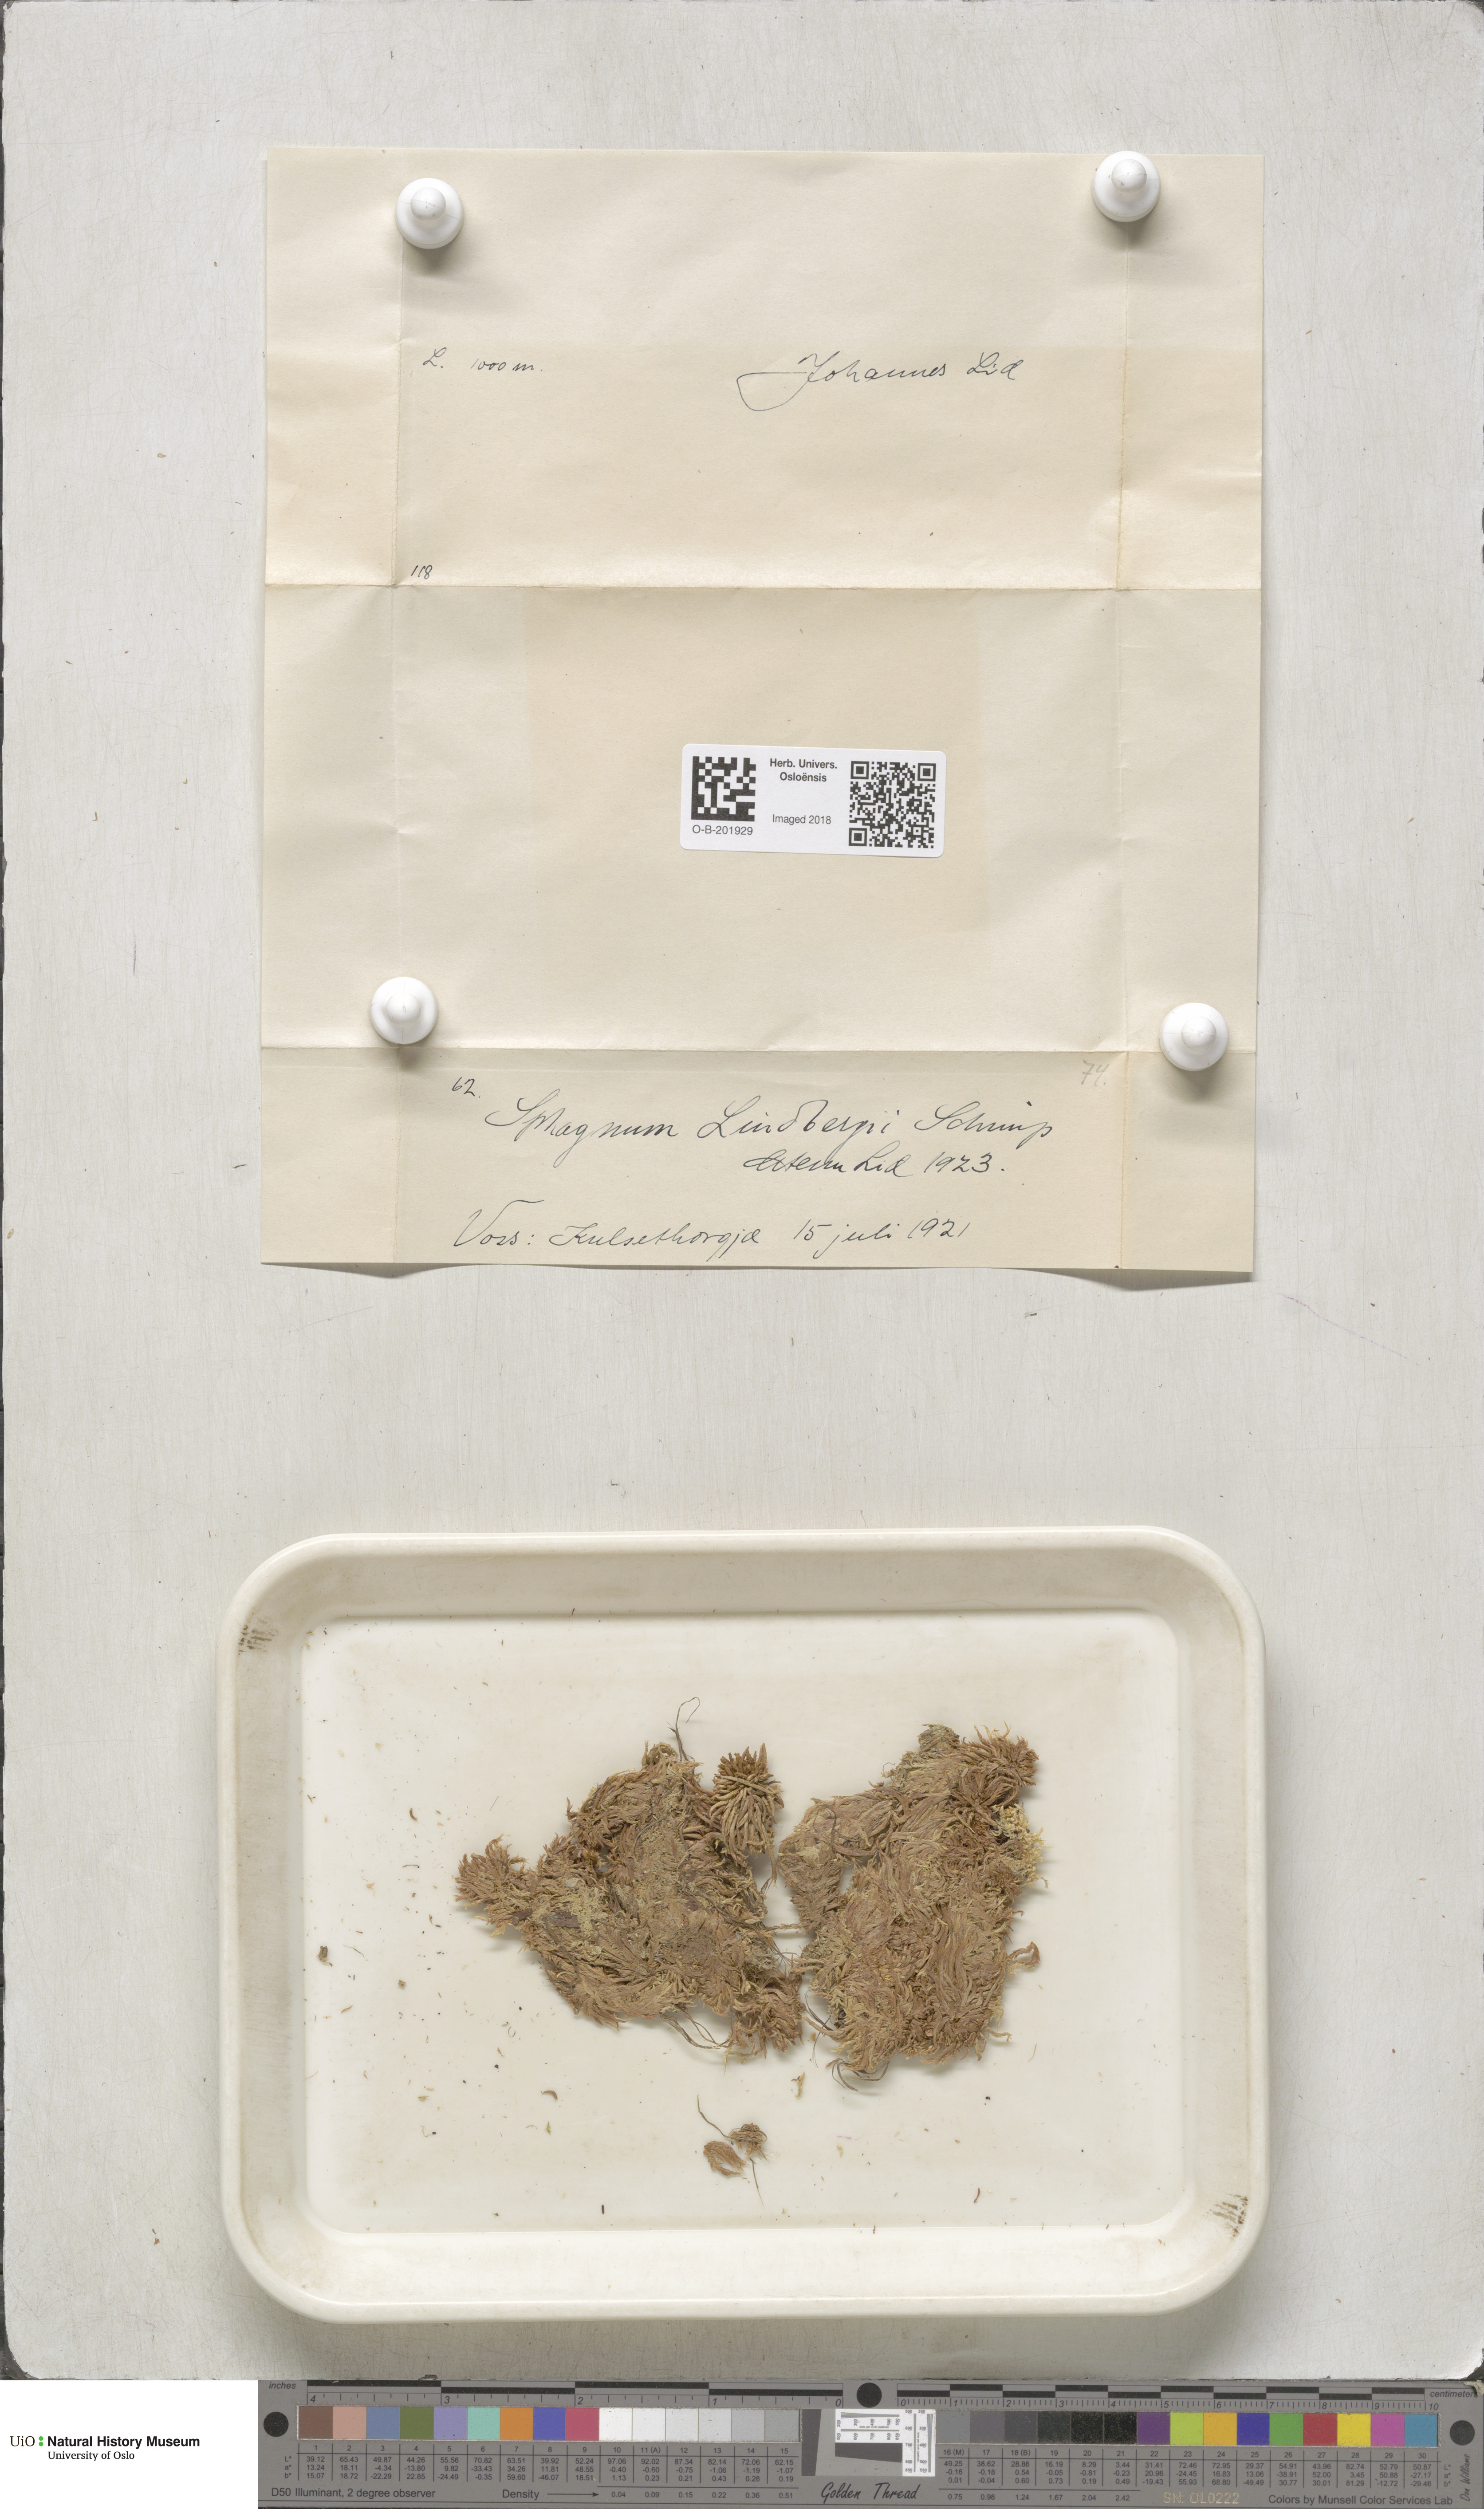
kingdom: Plantae
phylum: Bryophyta
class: Sphagnopsida
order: Sphagnales
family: Sphagnaceae
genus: Sphagnum
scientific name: Sphagnum lindbergii
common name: Lindberg's peat moss
